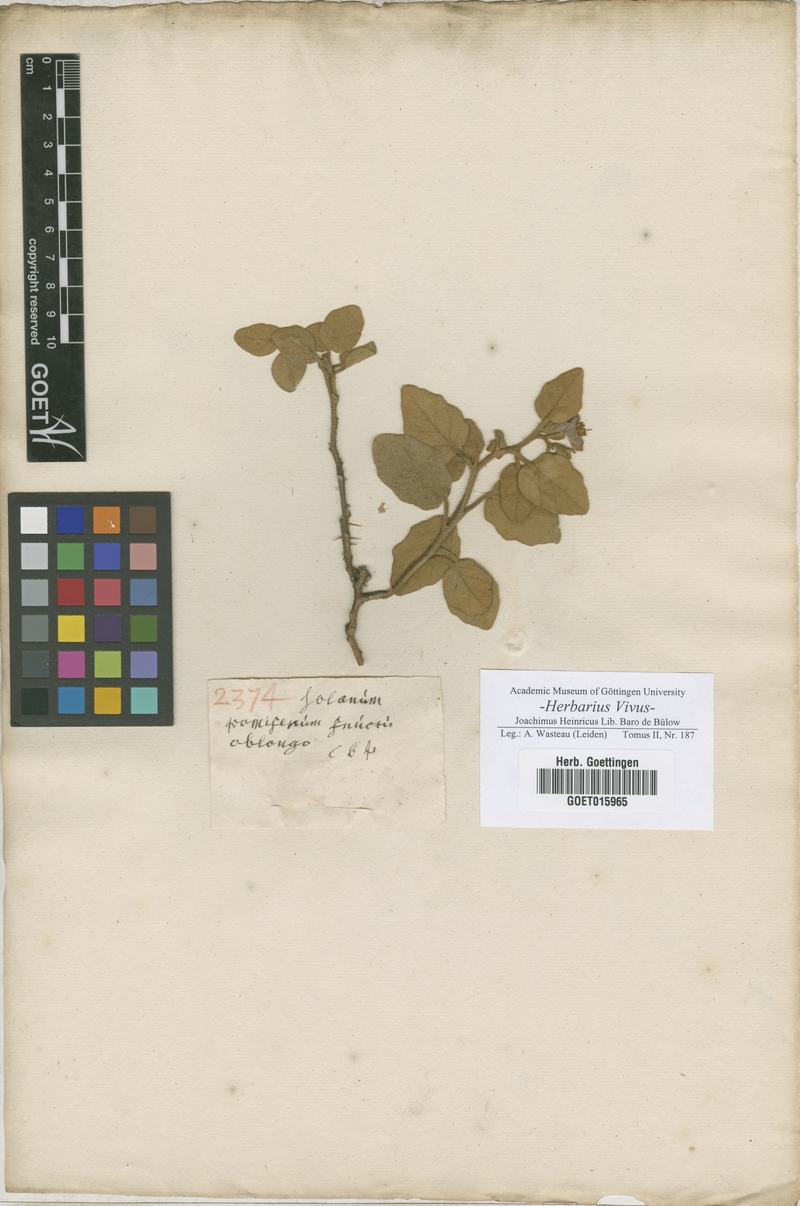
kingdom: Plantae
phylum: Tracheophyta
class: Magnoliopsida
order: Solanales
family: Solanaceae
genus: Solanum
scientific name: Solanum
